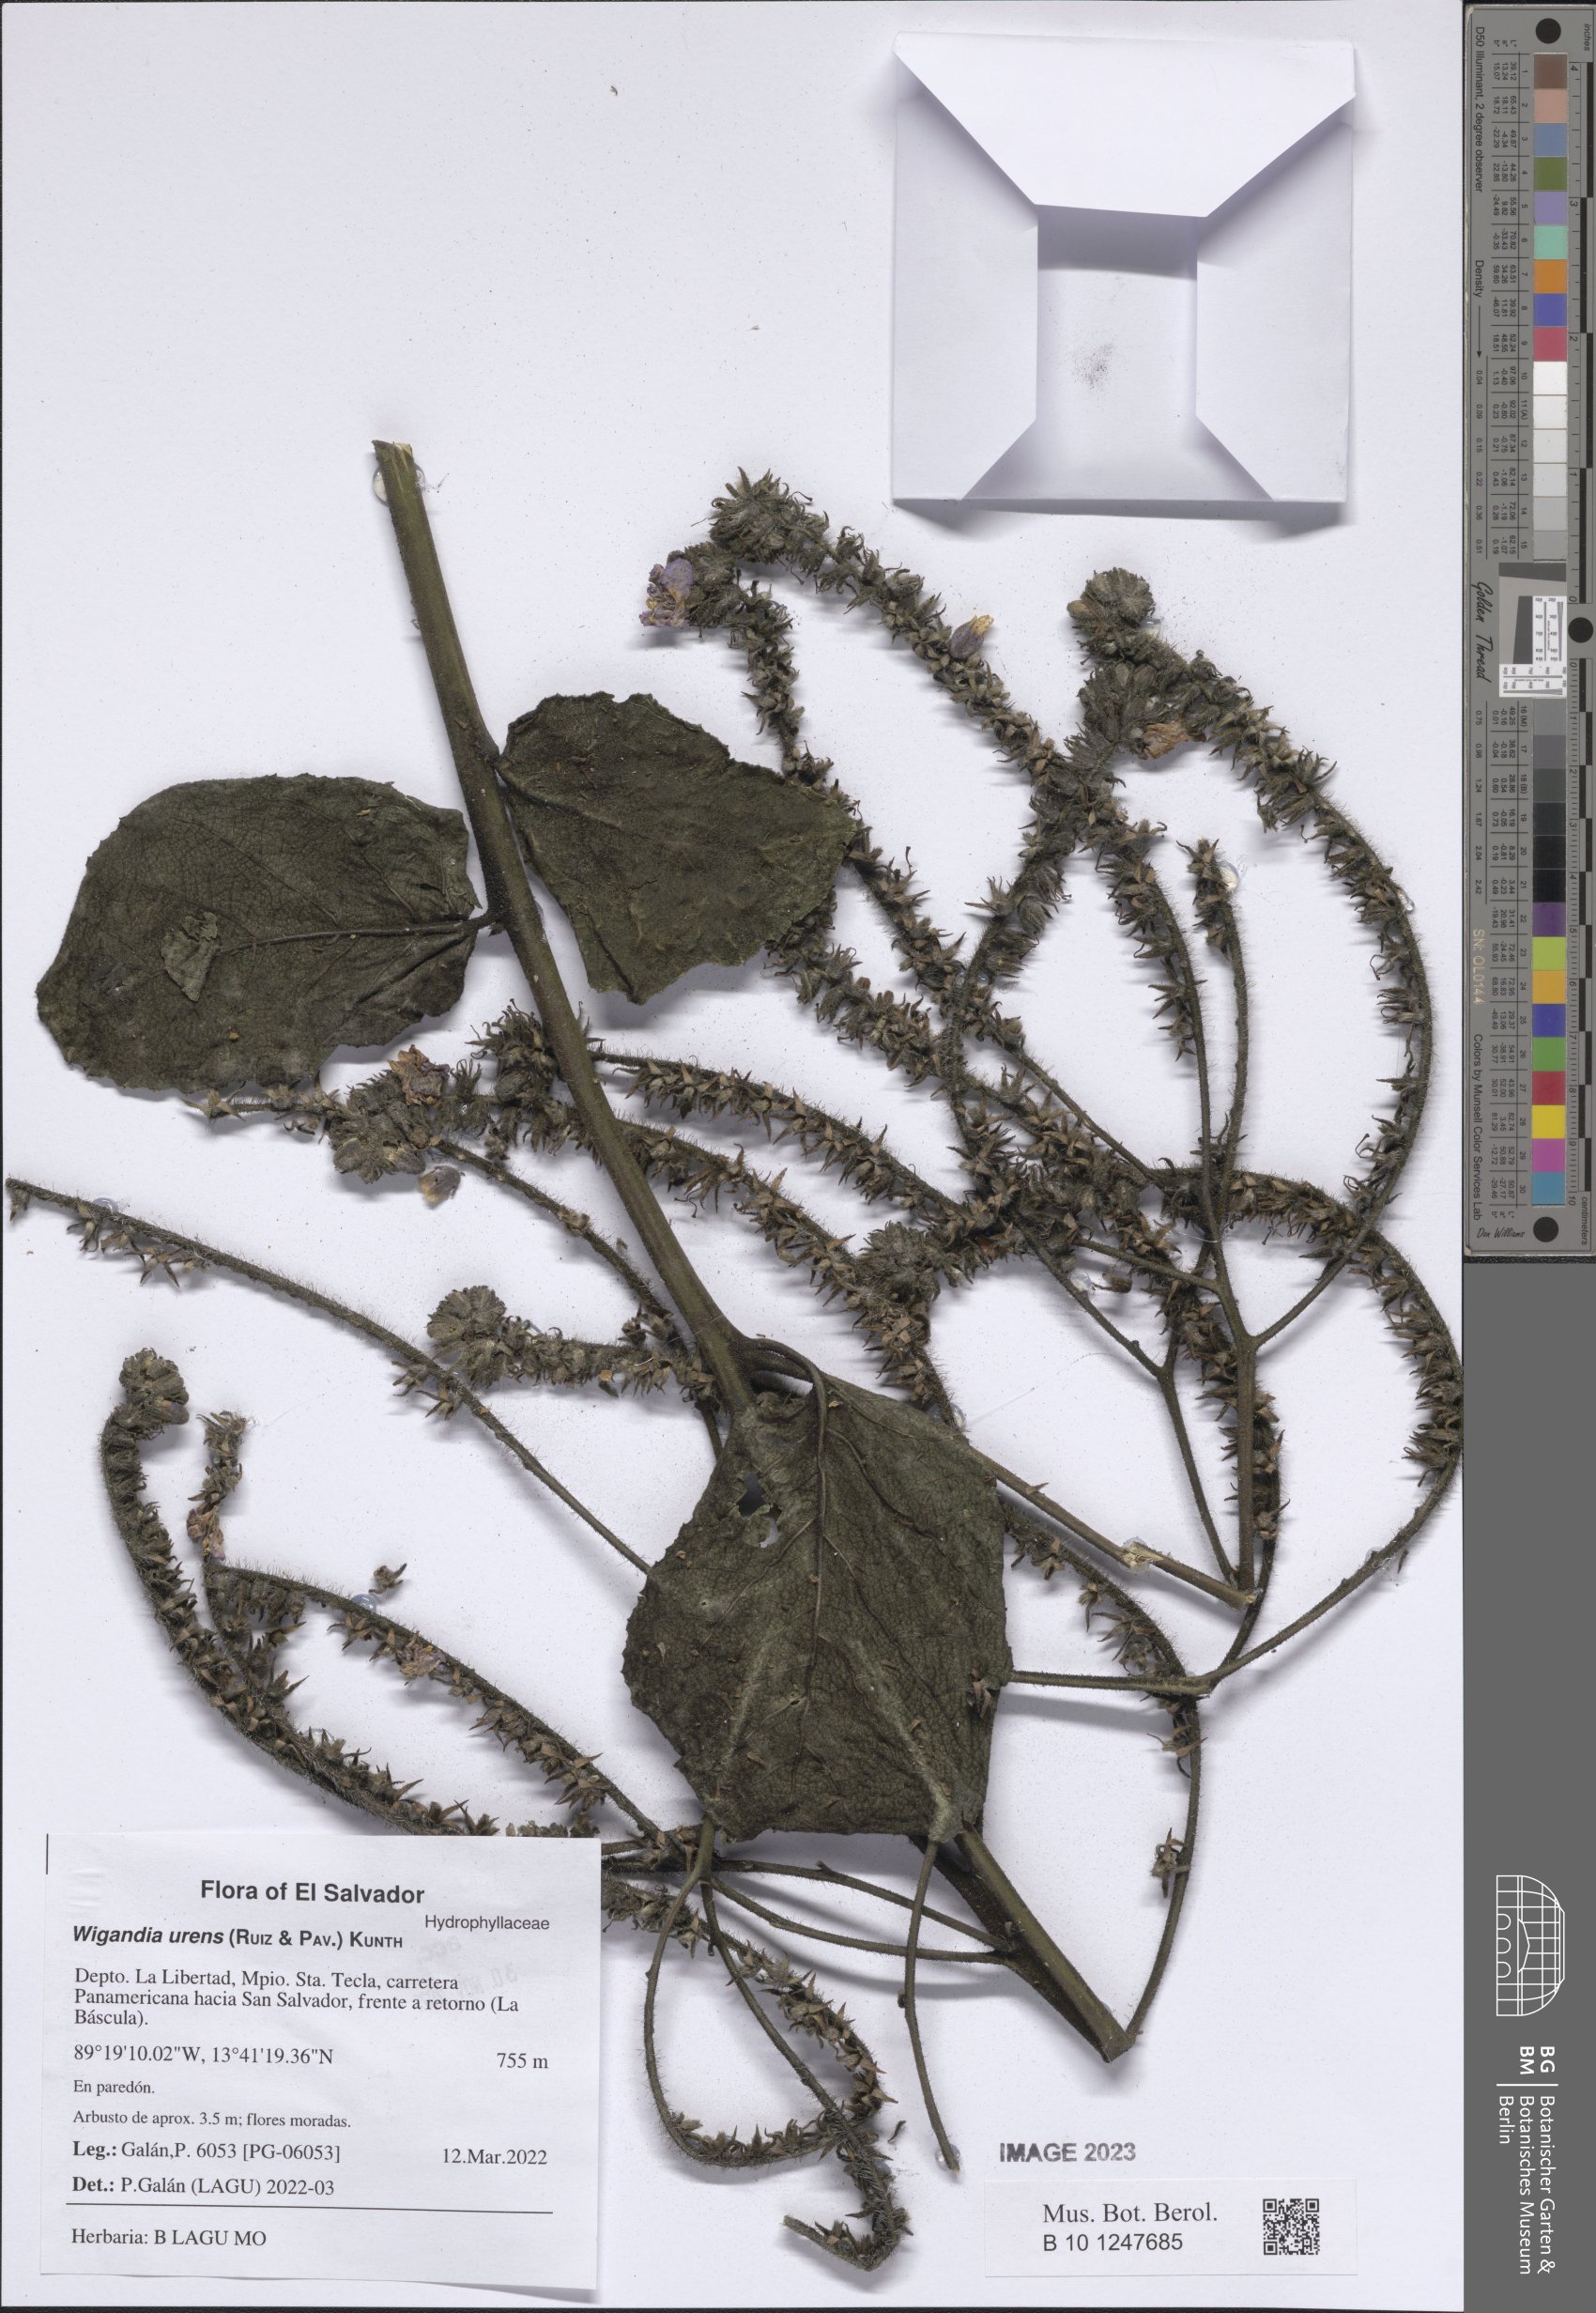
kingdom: Plantae
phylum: Tracheophyta
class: Magnoliopsida
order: Boraginales
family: Namaceae
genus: Wigandia
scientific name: Wigandia urens
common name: Caracus wigandia
